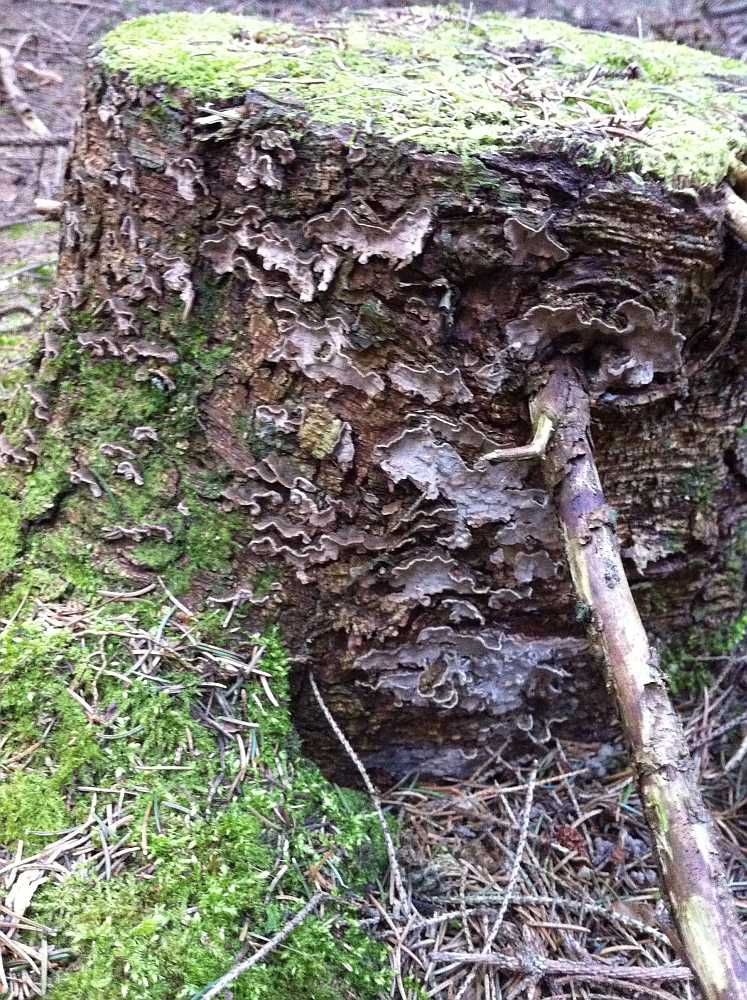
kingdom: Fungi
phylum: Basidiomycota
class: Agaricomycetes
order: Russulales
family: Echinodontiaceae
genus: Amylostereum
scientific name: Amylostereum chailletii
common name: gran-lædersvamp
